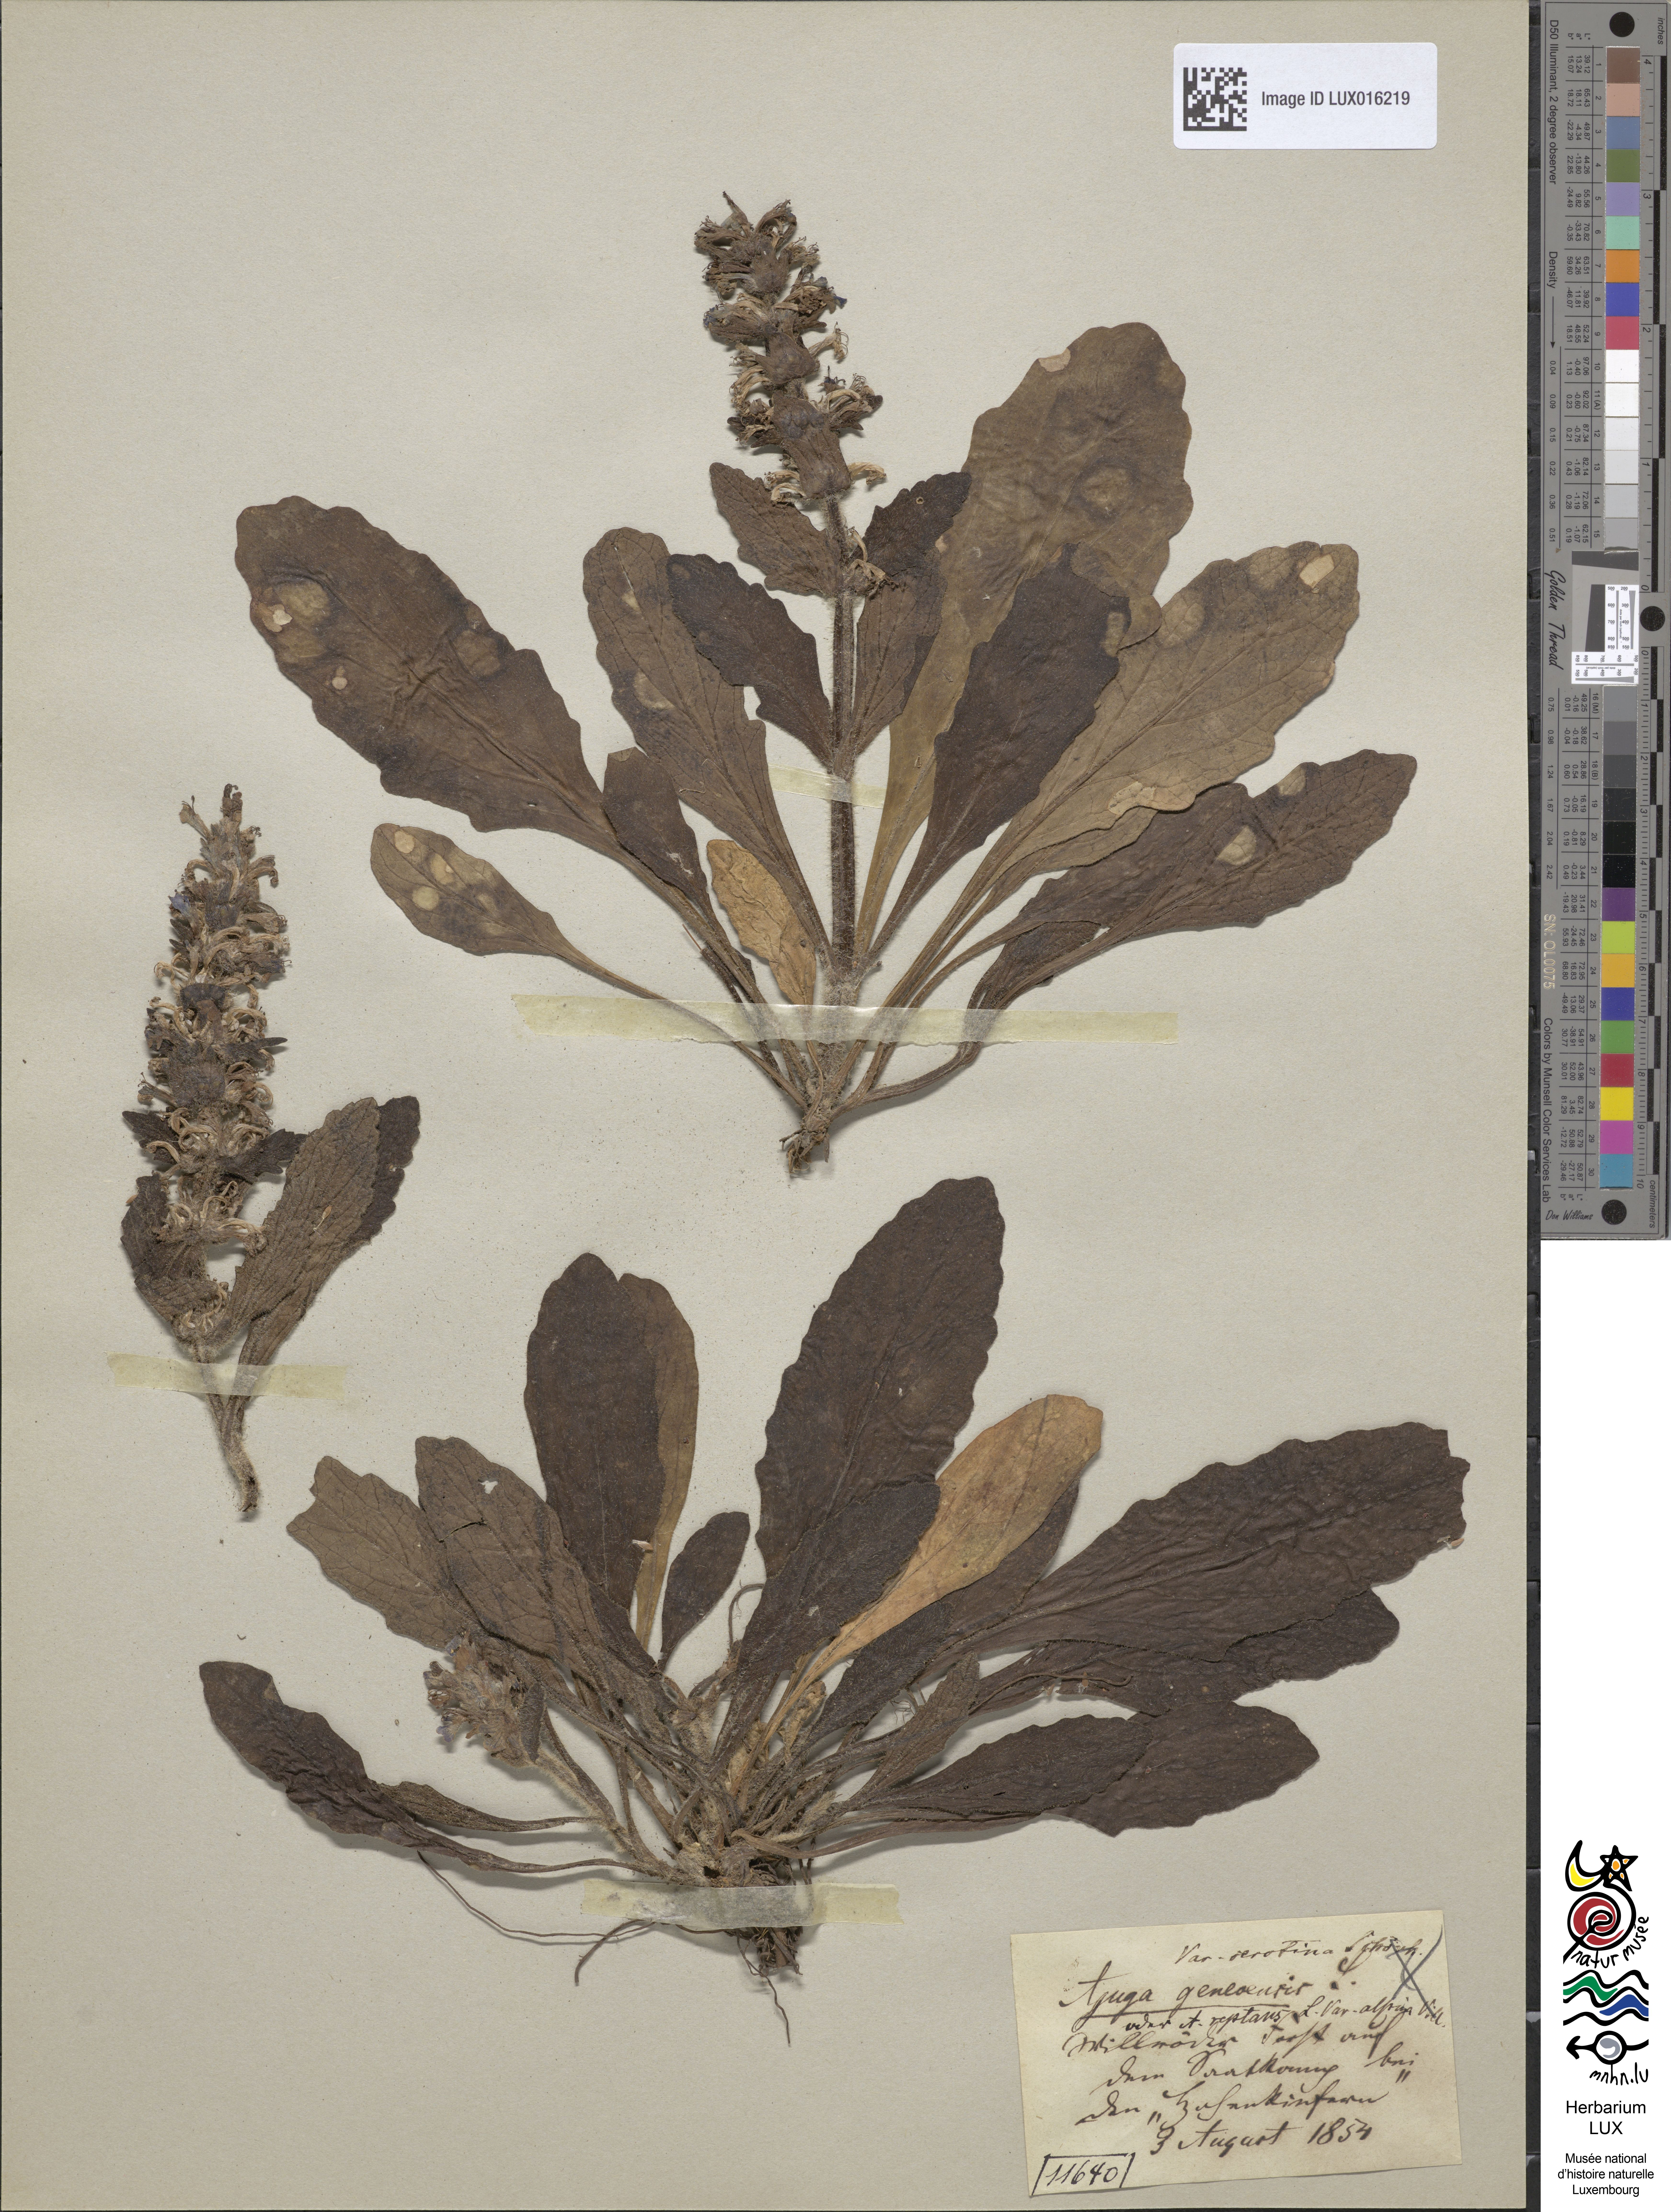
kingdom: Plantae
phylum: Tracheophyta
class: Magnoliopsida
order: Lamiales
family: Lamiaceae
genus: Ajuga
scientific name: Ajuga genevensis
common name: Blue bugle
